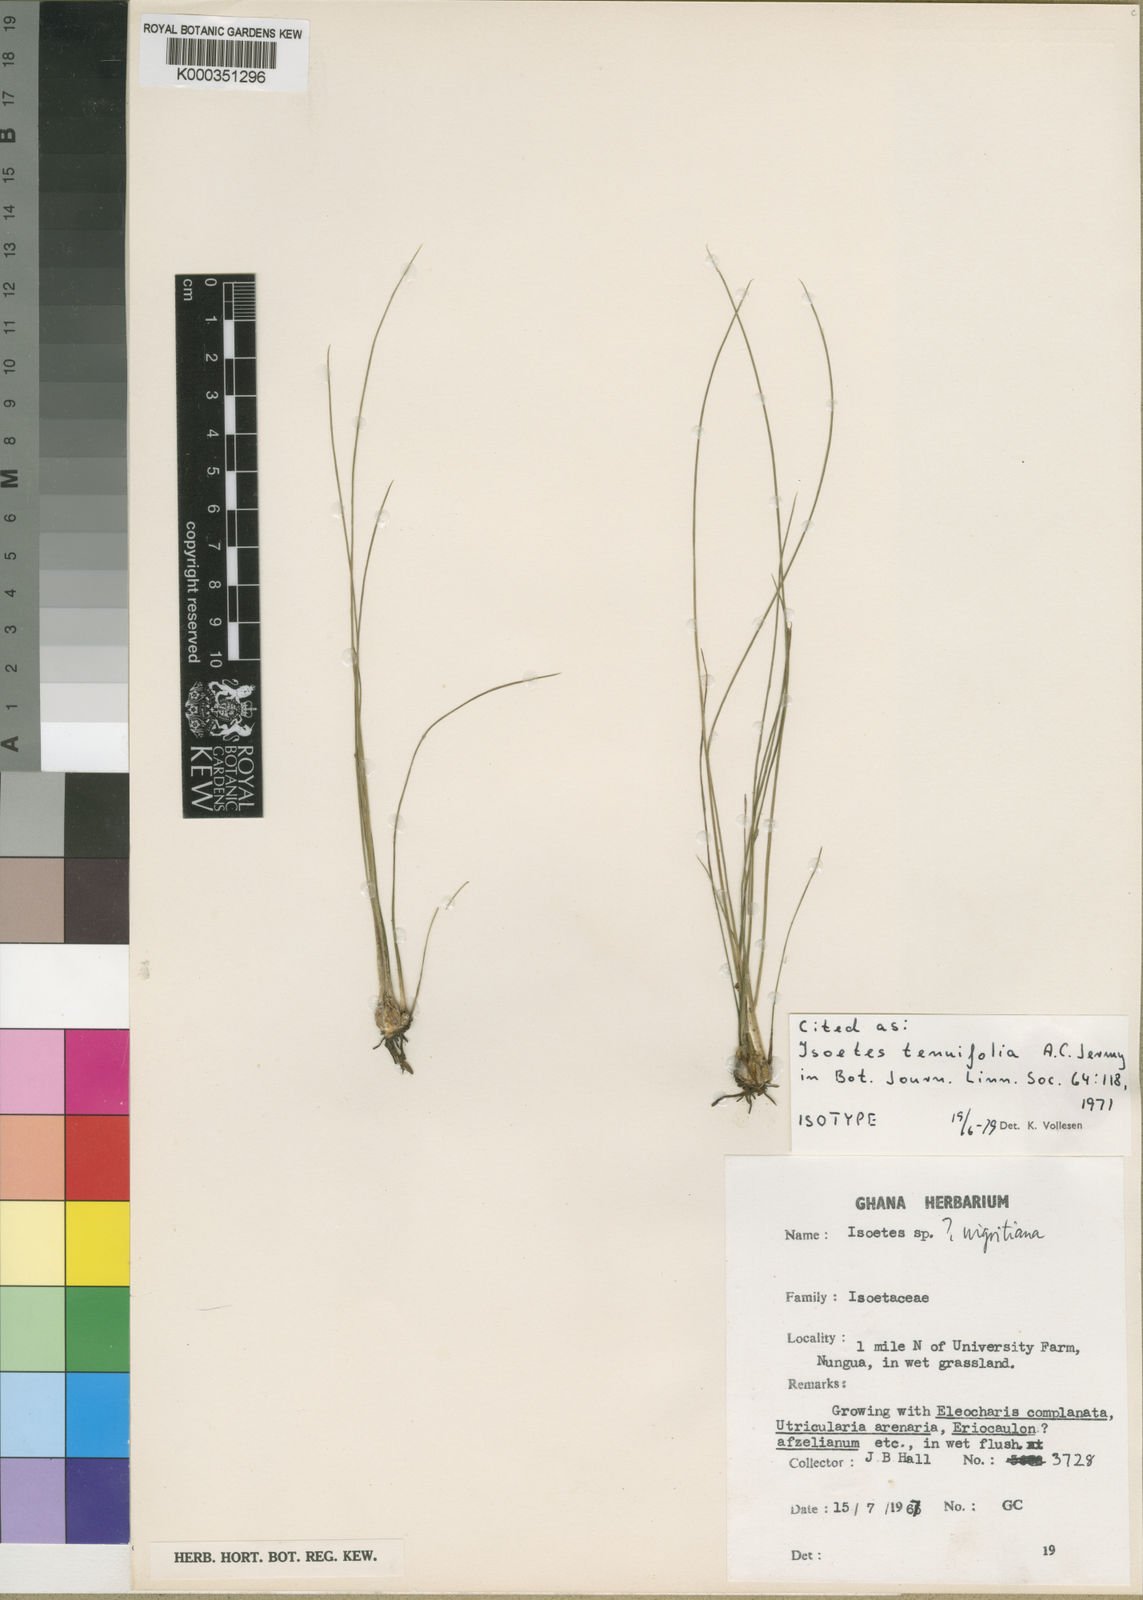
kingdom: Plantae
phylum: Tracheophyta
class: Lycopodiopsida
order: Isoetales
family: Isoetaceae
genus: Isoetes
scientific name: Isoetes tenuifolia
